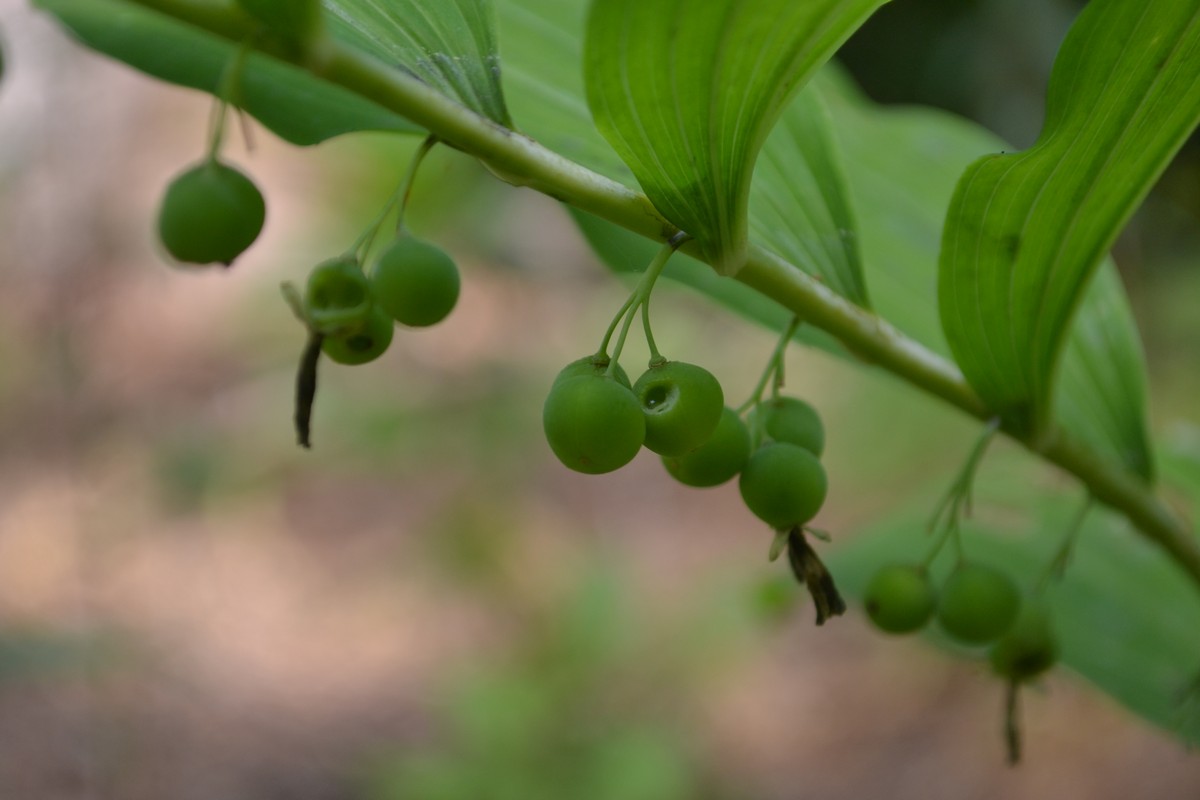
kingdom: Plantae
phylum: Tracheophyta
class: Liliopsida
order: Asparagales
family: Asparagaceae
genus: Polygonatum
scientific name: Polygonatum multiflorum
